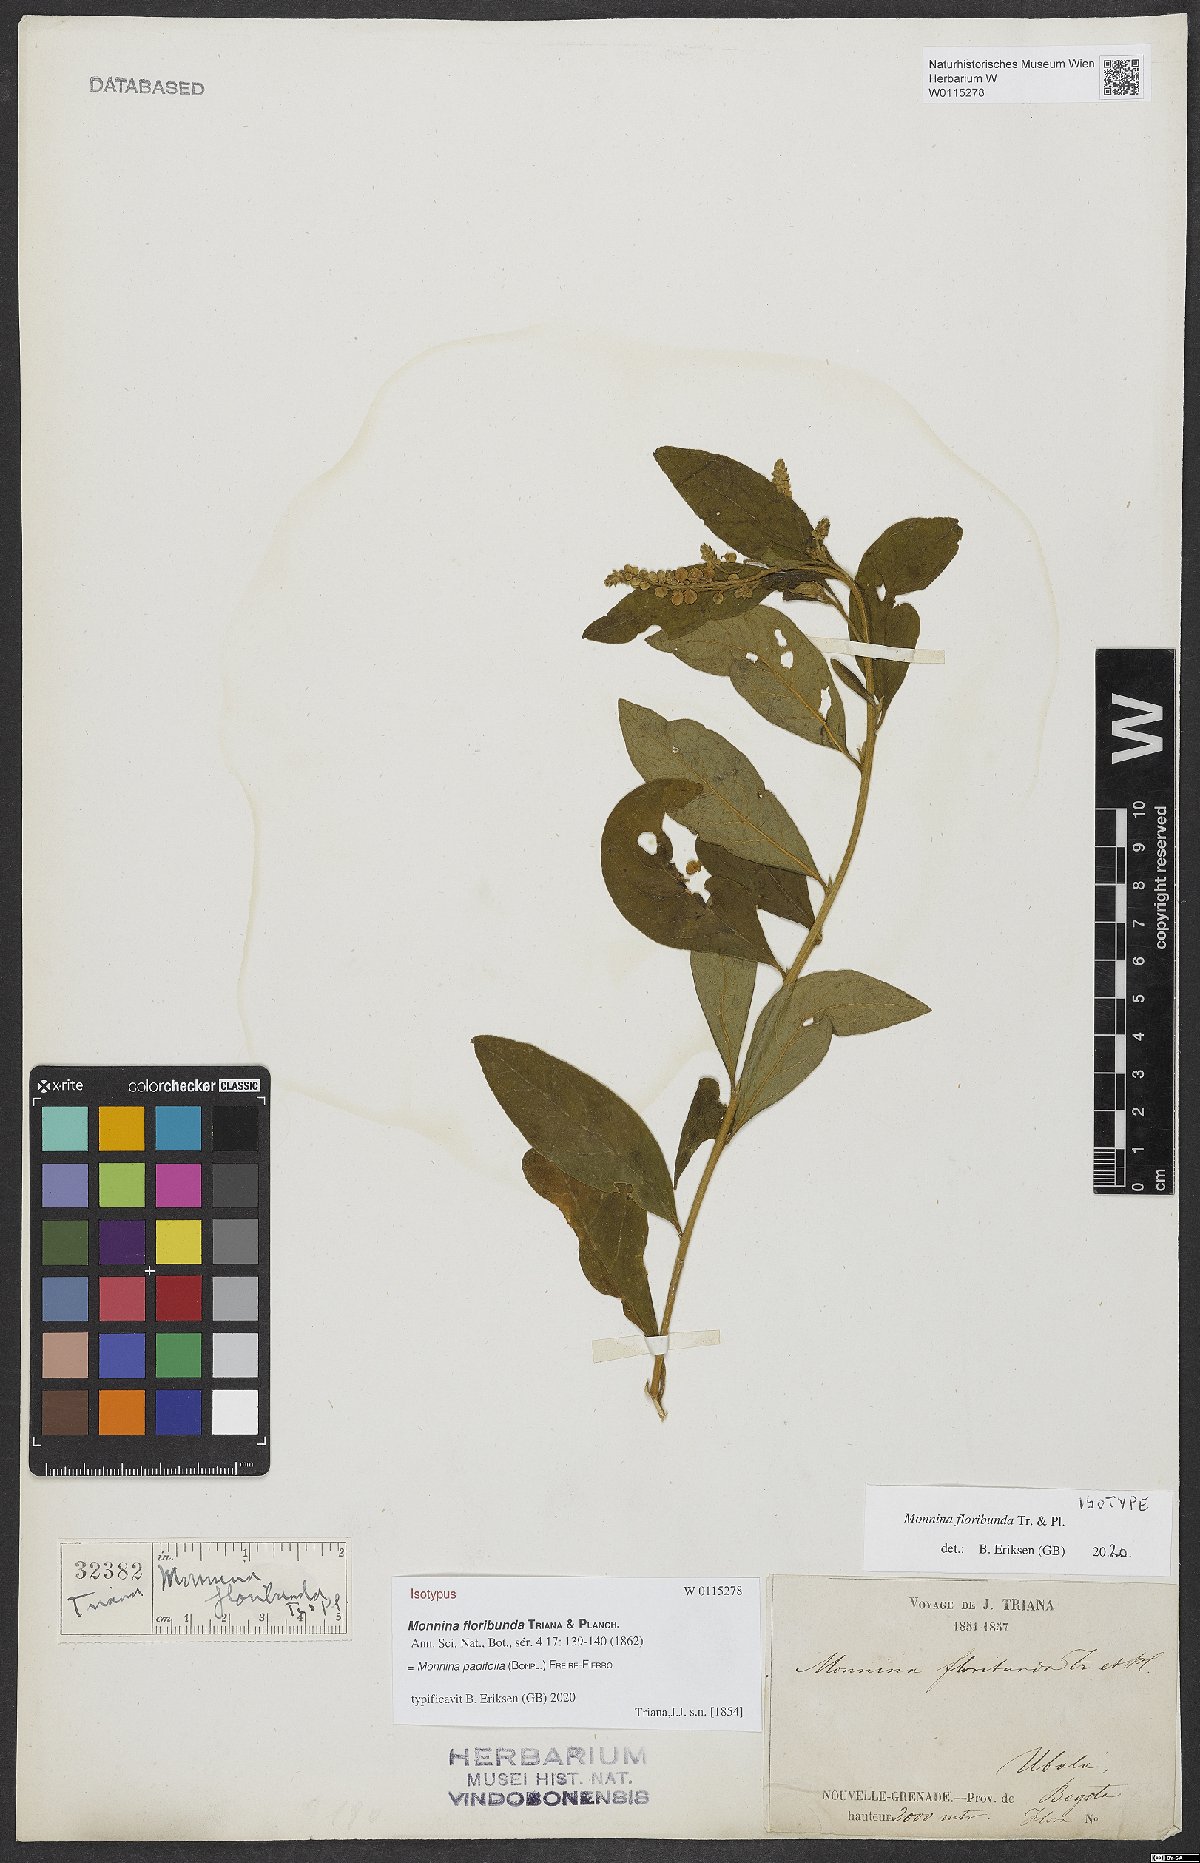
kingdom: Plantae
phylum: Tracheophyta
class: Magnoliopsida
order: Fabales
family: Polygalaceae
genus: Monnina
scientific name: Monnina padifolia
